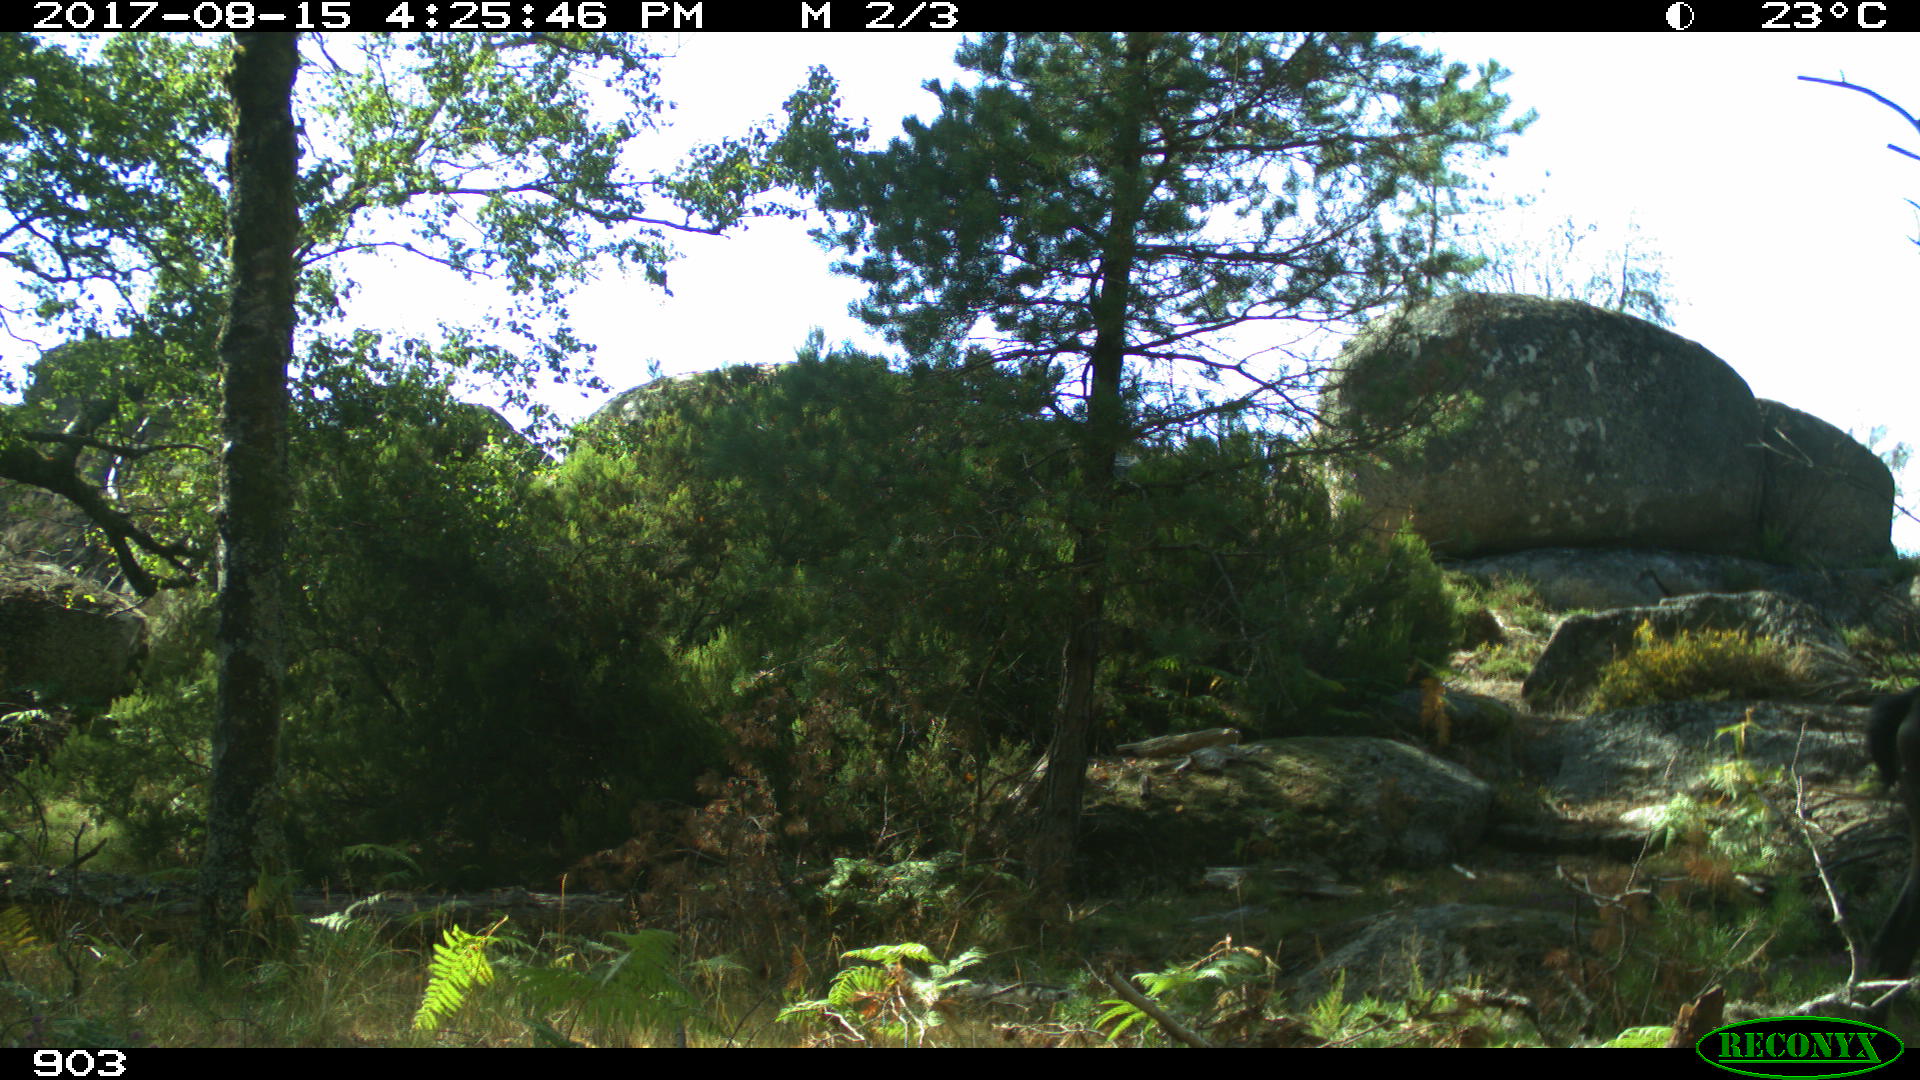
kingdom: Animalia
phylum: Chordata
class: Mammalia
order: Perissodactyla
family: Equidae
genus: Equus
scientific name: Equus caballus
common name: Horse
